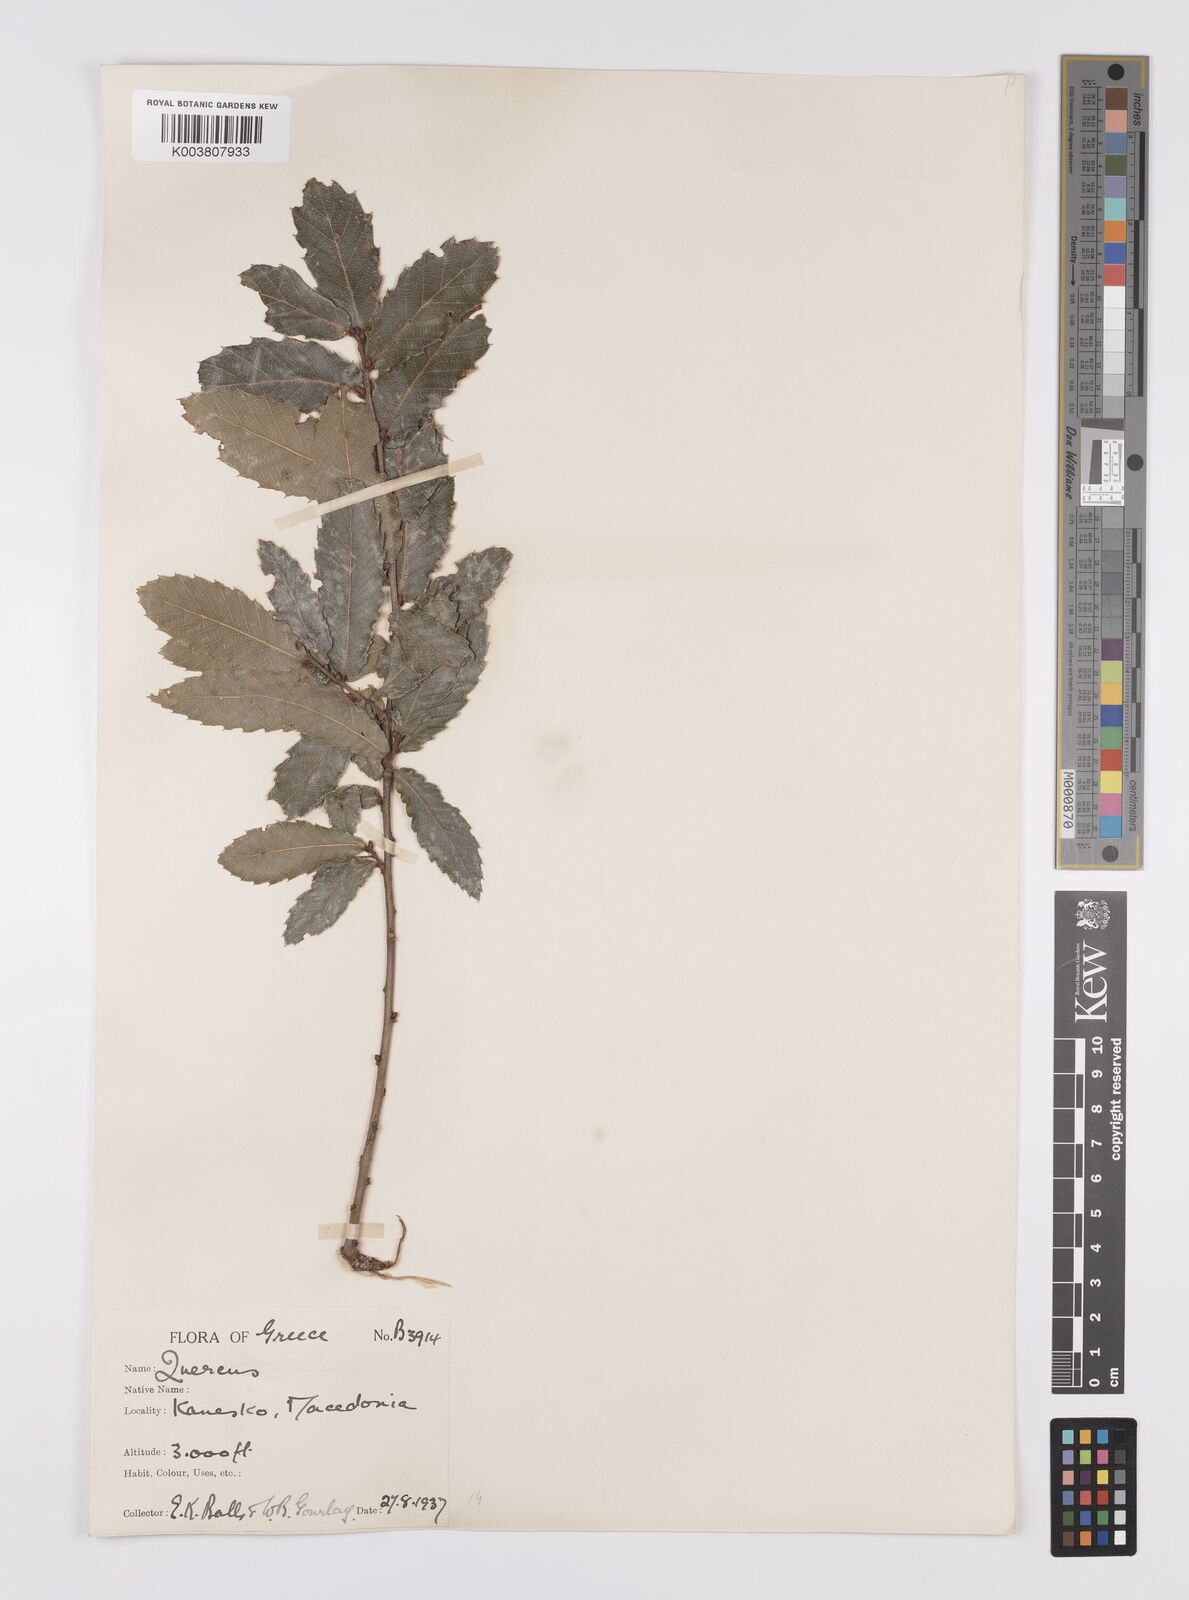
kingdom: Plantae
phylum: Tracheophyta
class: Magnoliopsida
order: Fagales
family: Fagaceae
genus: Quercus
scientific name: Quercus trojana
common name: Macedonian oak
